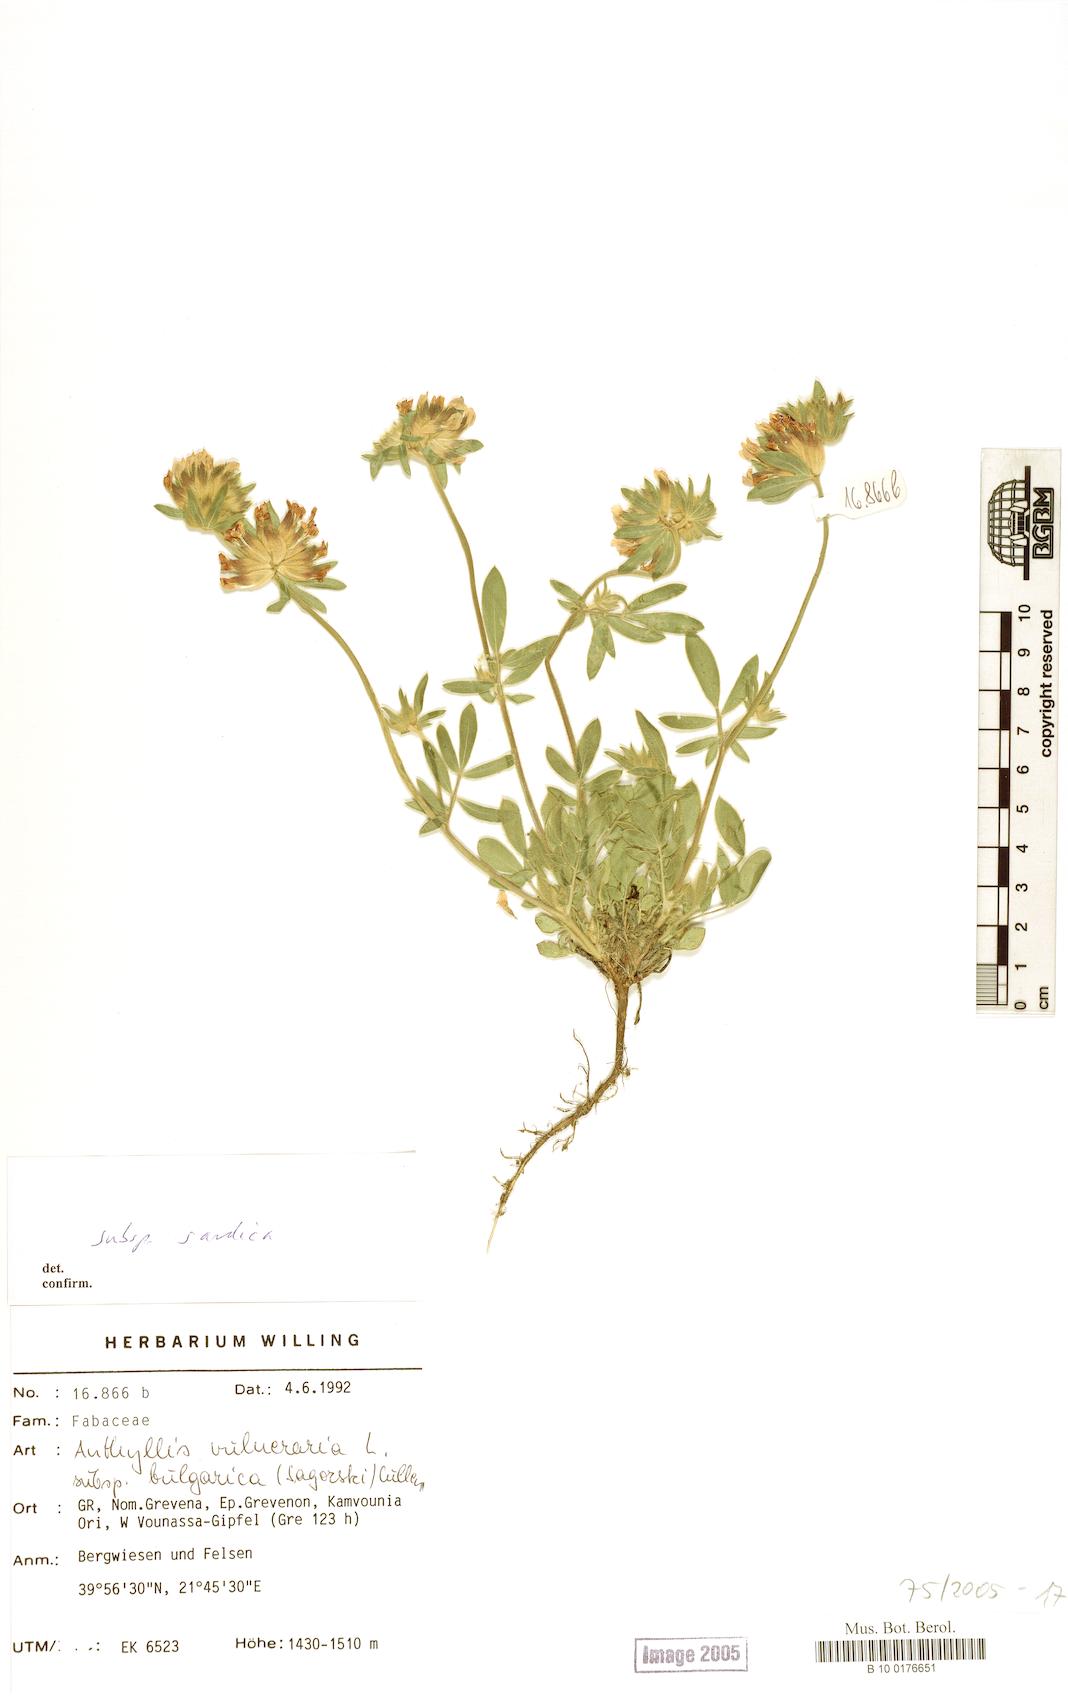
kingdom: Plantae
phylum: Tracheophyta
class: Magnoliopsida
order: Fabales
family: Fabaceae
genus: Anthyllis
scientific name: Anthyllis vulneraria
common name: Kidney vetch
